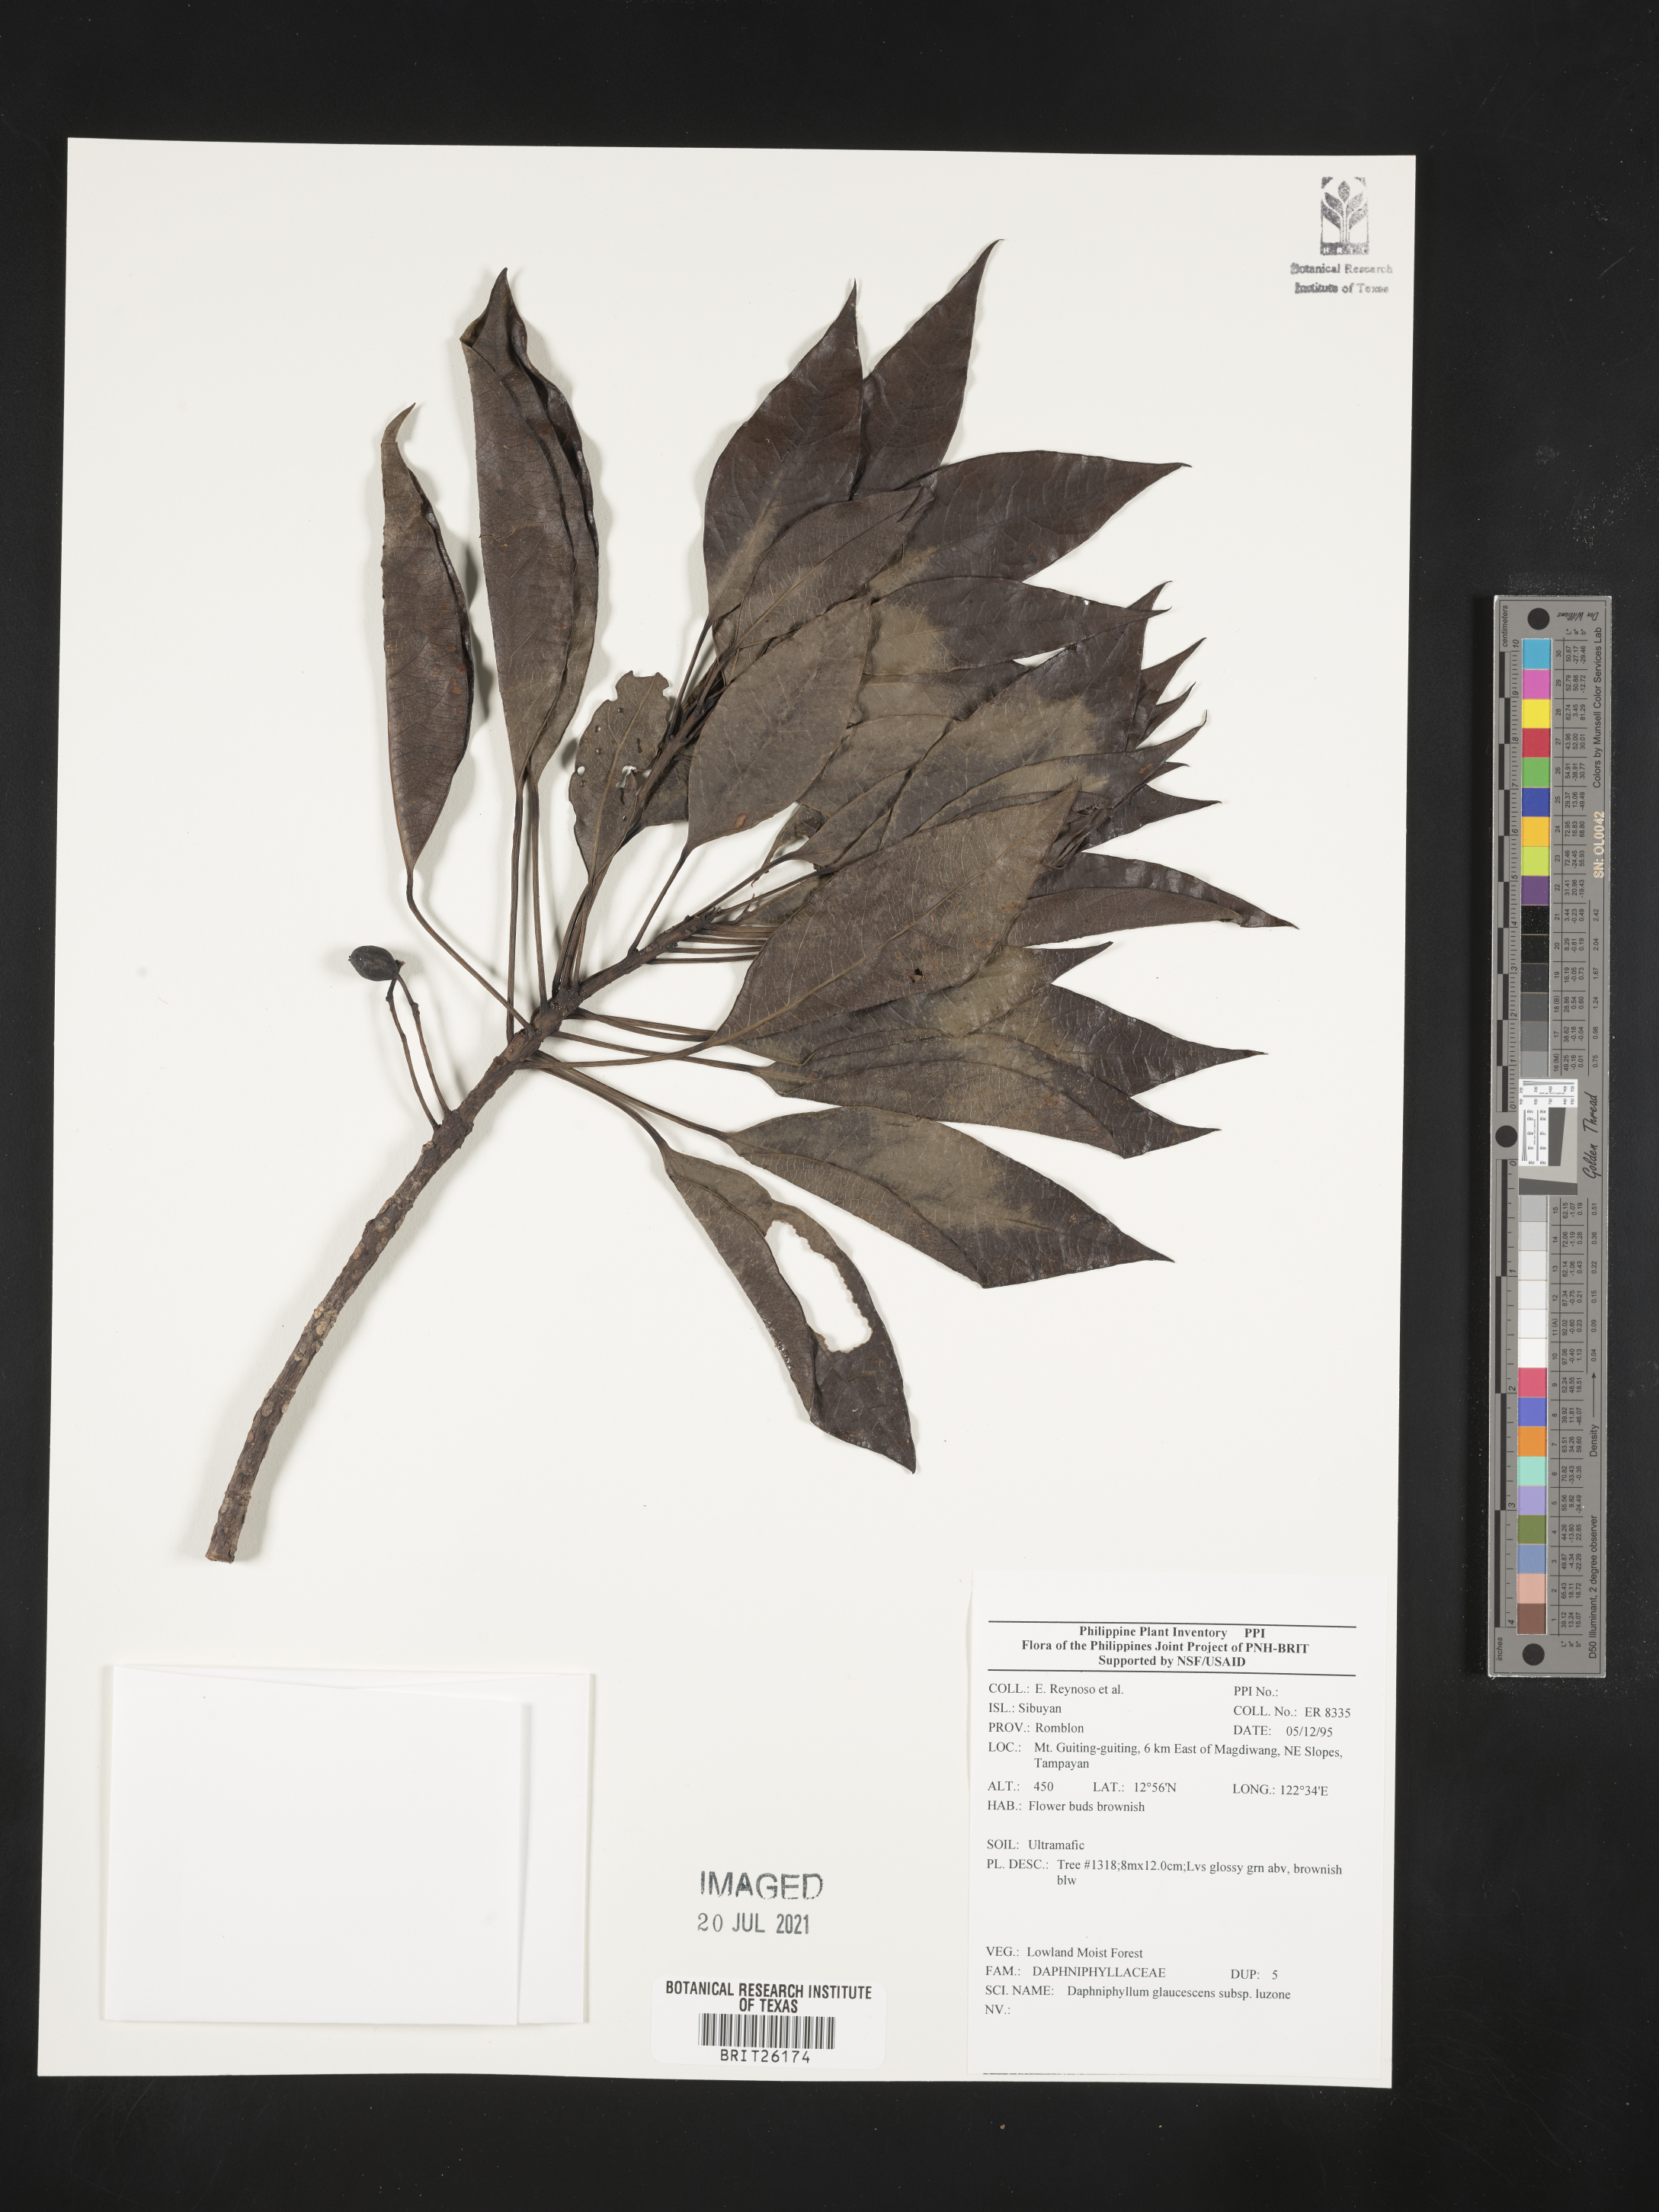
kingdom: Plantae
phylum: Tracheophyta
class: Magnoliopsida
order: Saxifragales
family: Daphniphyllaceae
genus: Daphniphyllum
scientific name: Daphniphyllum glaucescens
